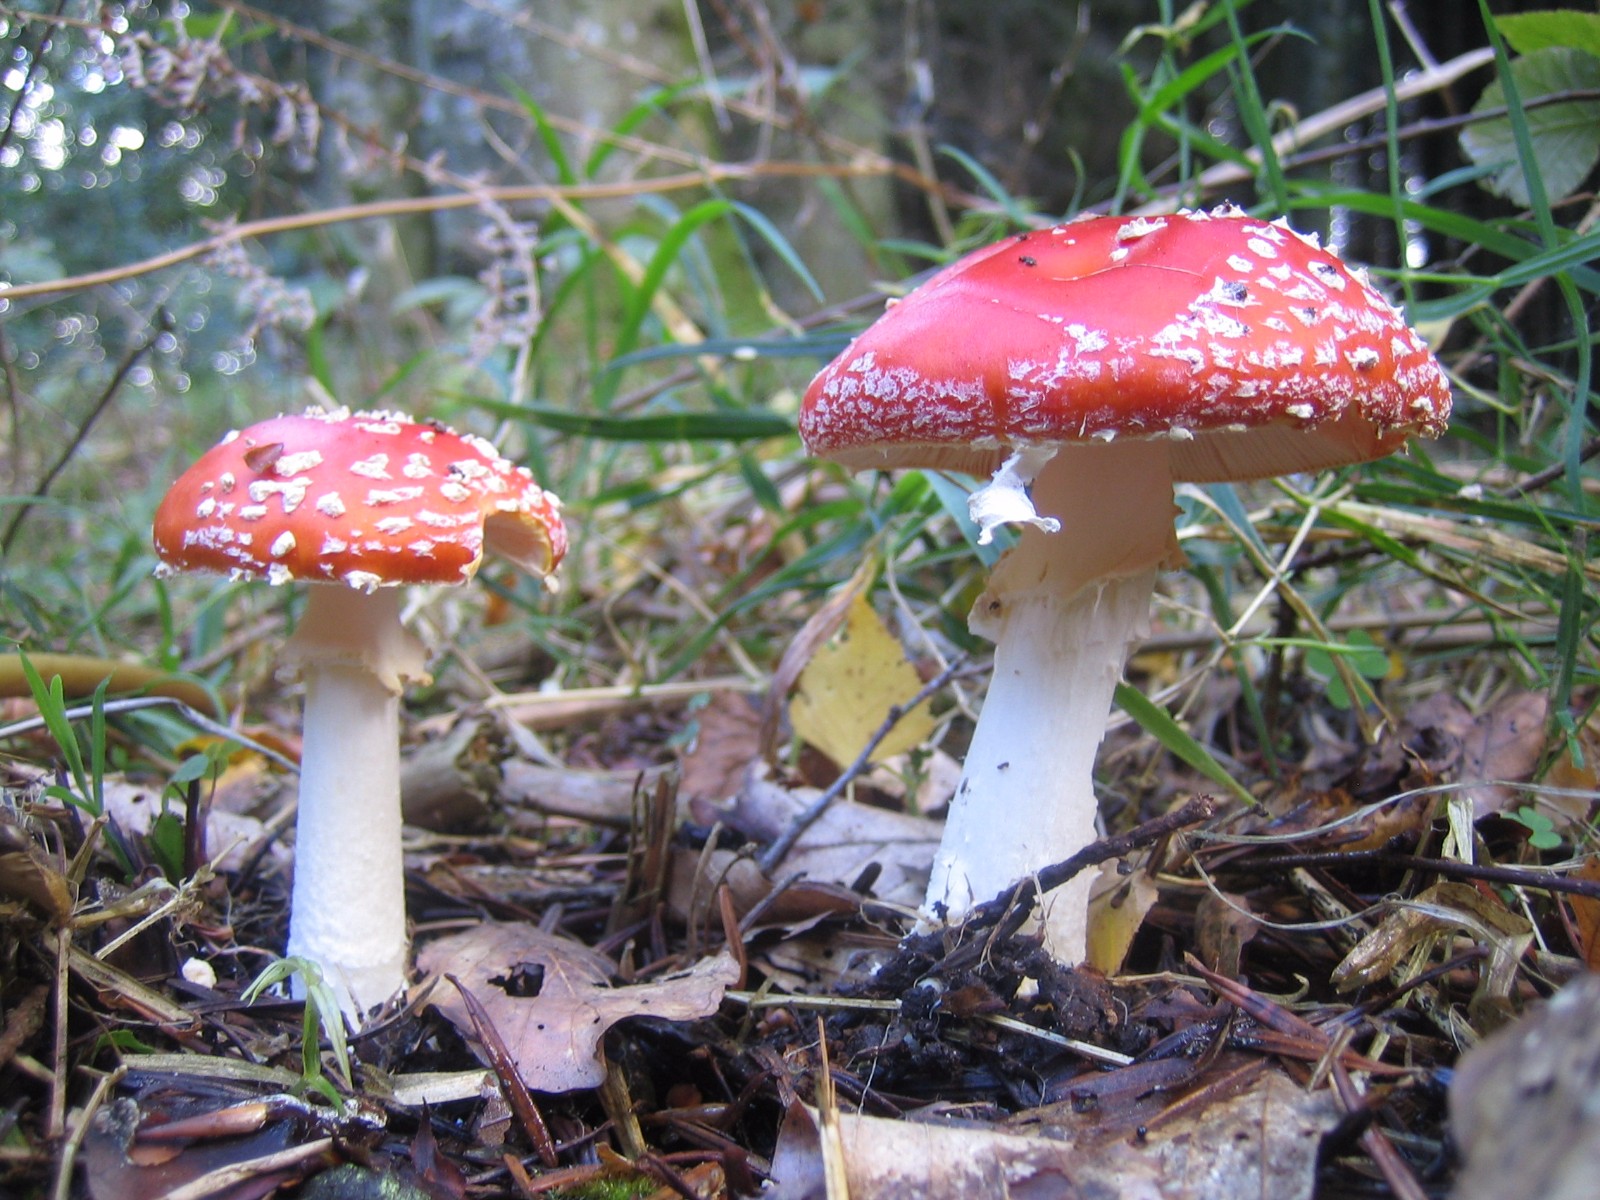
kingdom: Fungi
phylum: Basidiomycota
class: Agaricomycetes
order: Agaricales
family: Amanitaceae
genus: Amanita
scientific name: Amanita muscaria
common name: rød fluesvamp
